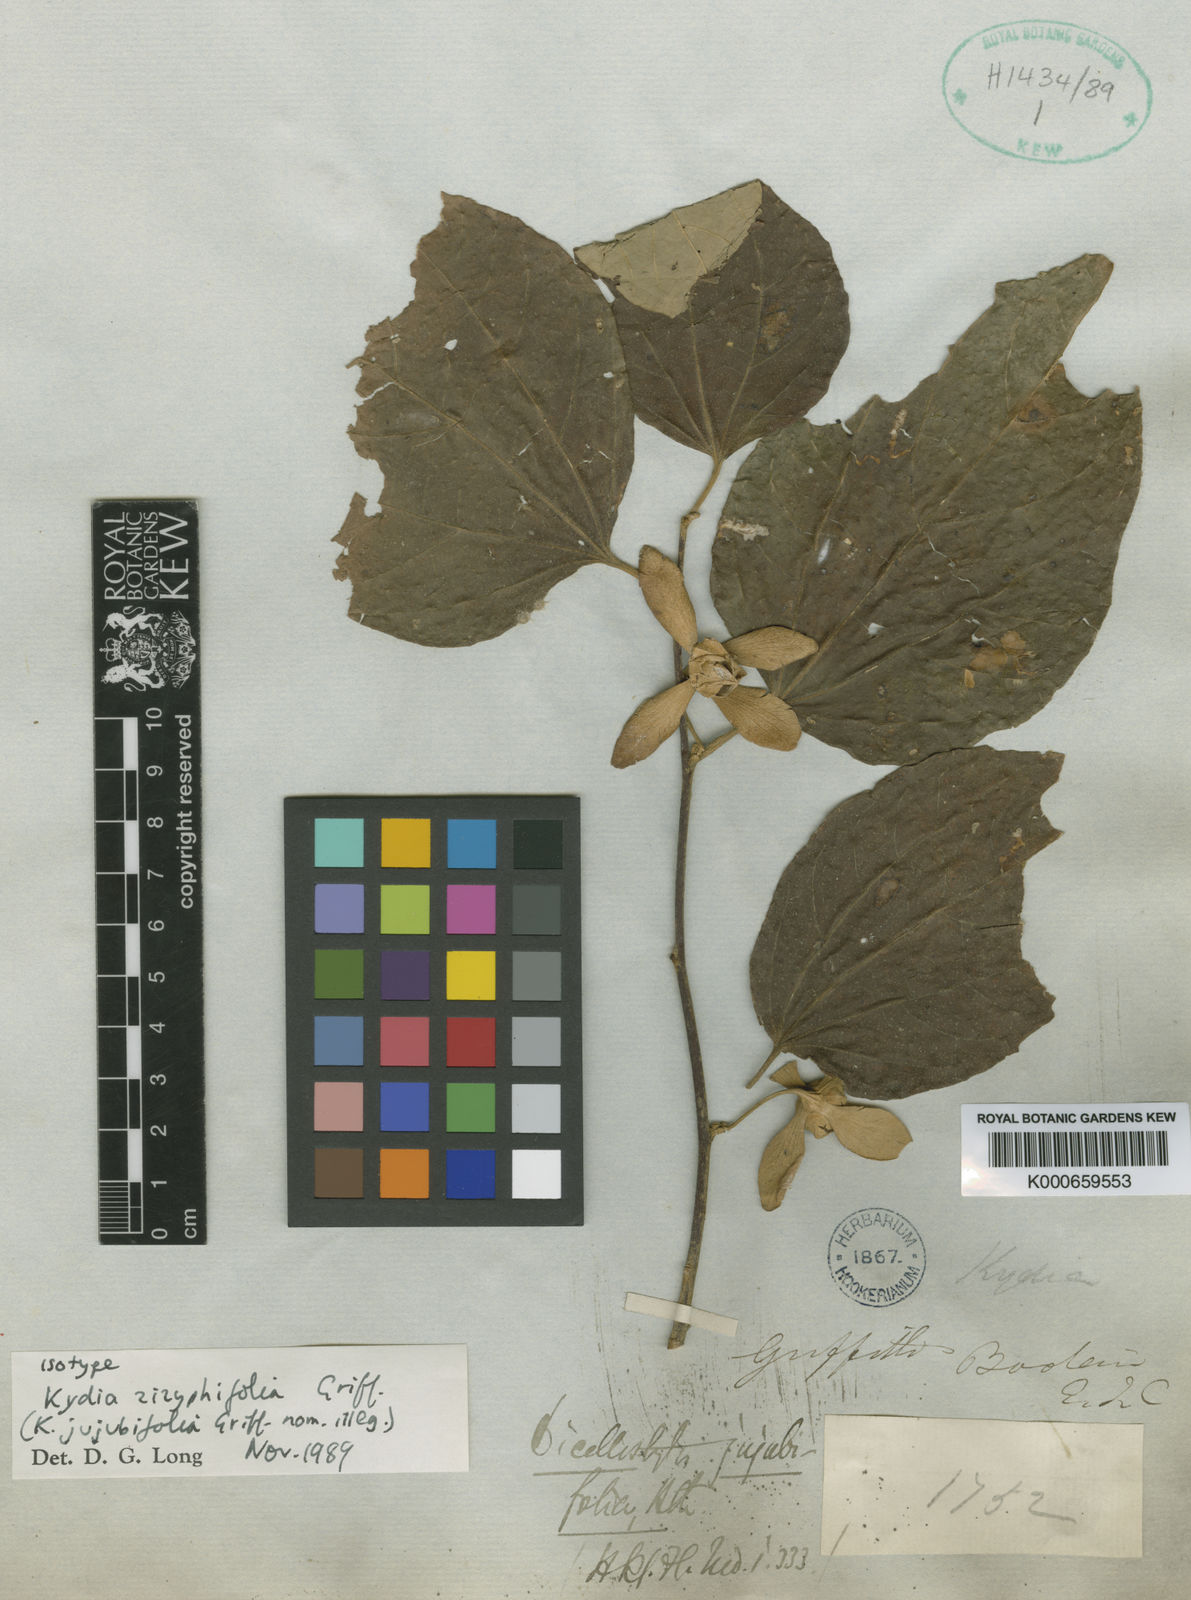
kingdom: Plantae
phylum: Tracheophyta
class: Magnoliopsida
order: Malvales
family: Malvaceae
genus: Dicellostyles
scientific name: Dicellostyles zizyphifolia
